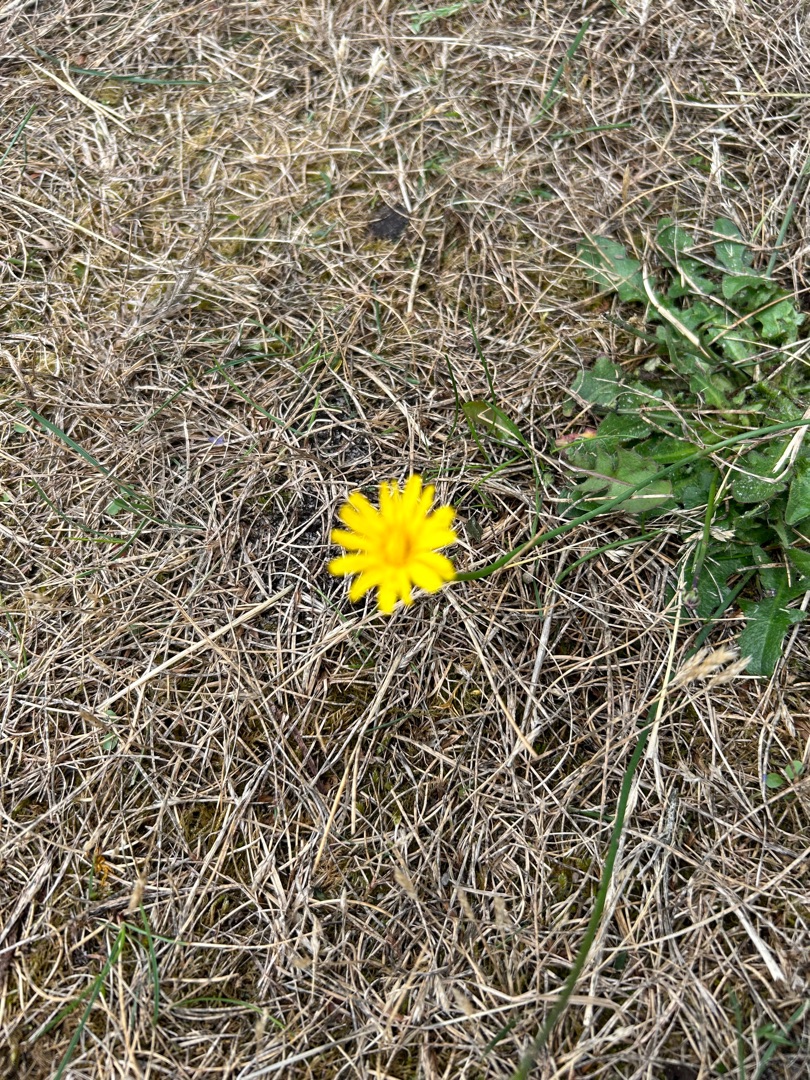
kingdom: Plantae
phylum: Tracheophyta
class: Magnoliopsida
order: Asterales
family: Asteraceae
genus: Hypochaeris
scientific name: Hypochaeris radicata
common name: Almindelig kongepen
